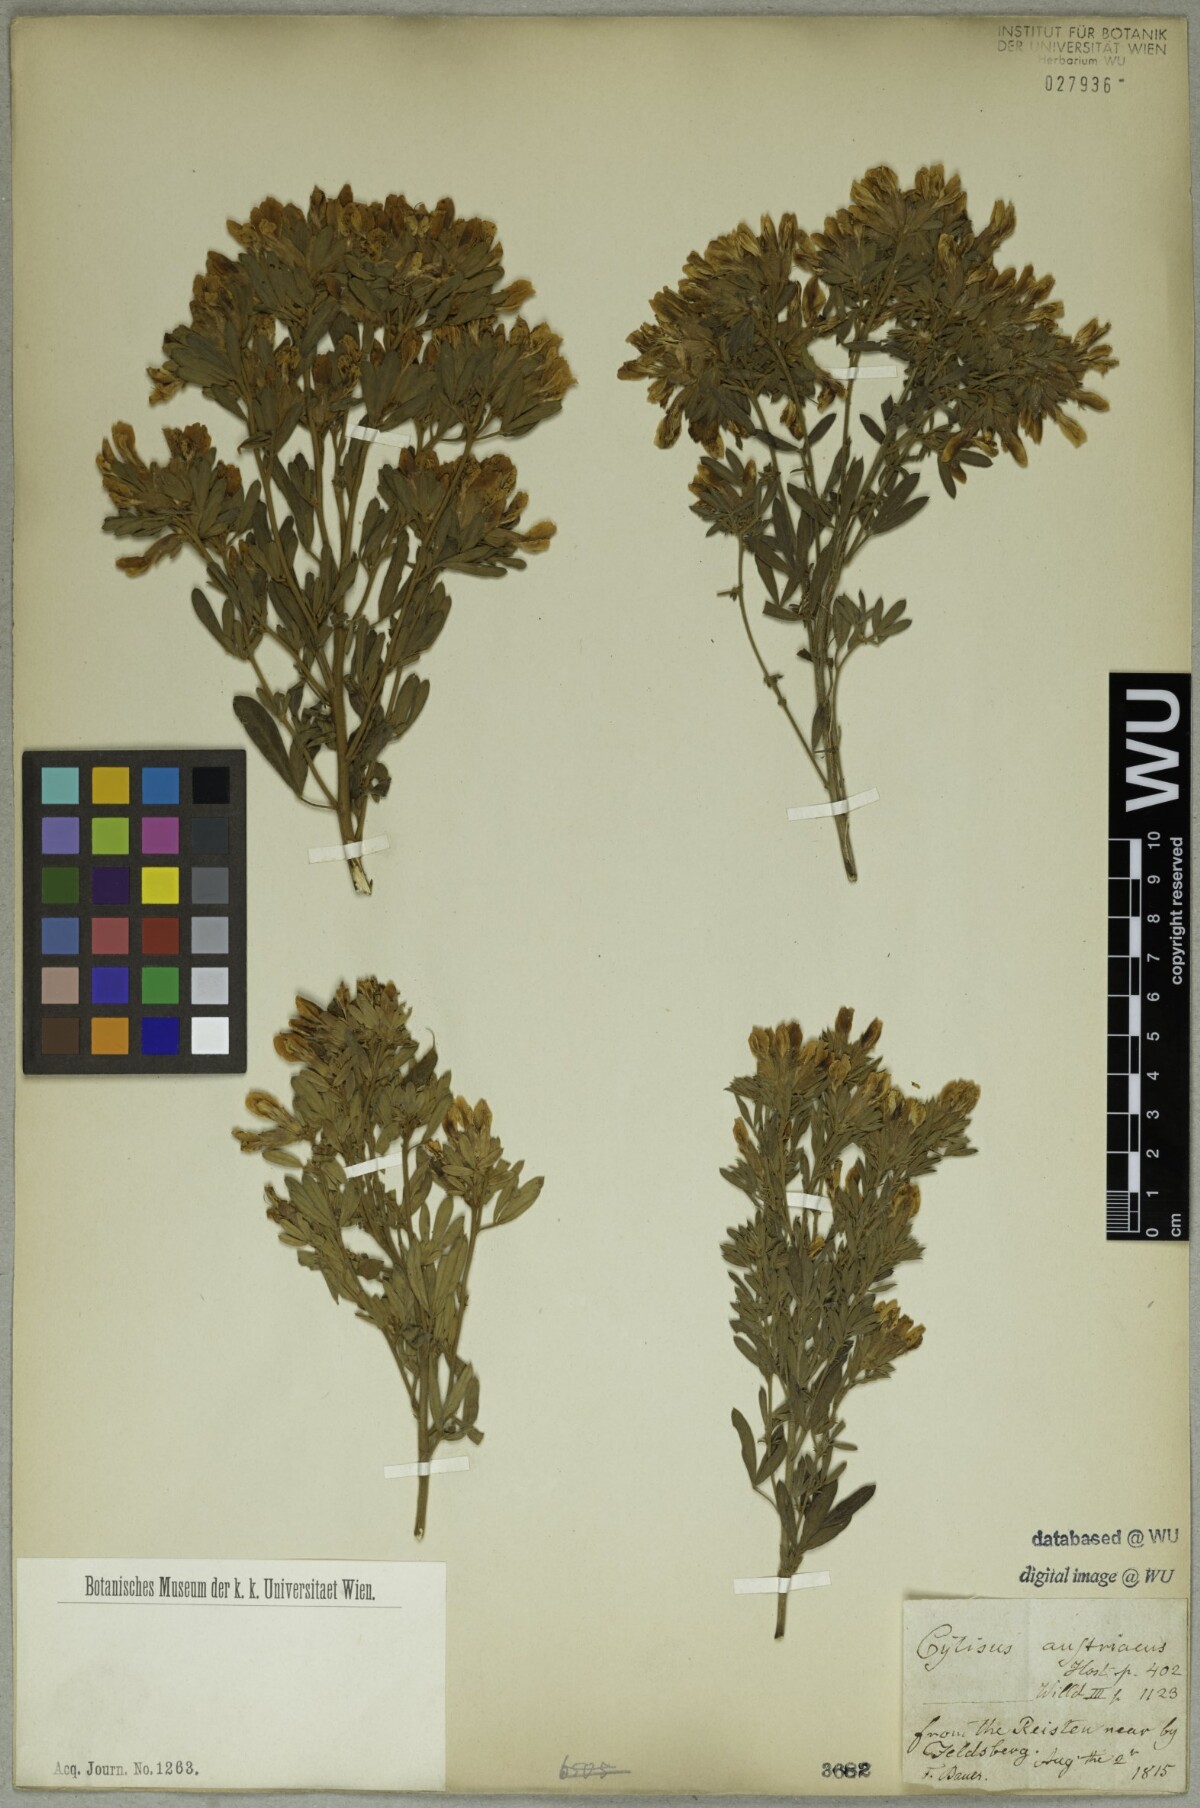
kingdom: Plantae
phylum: Tracheophyta
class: Magnoliopsida
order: Fabales
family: Fabaceae
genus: Chamaecytisus
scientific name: Chamaecytisus austriacus
